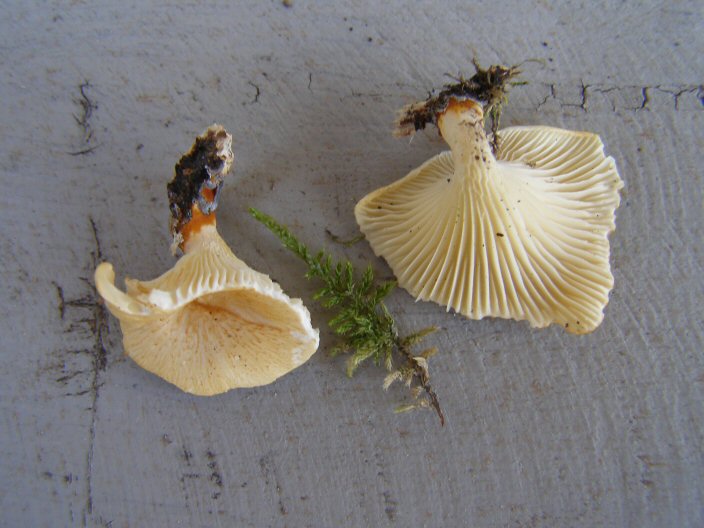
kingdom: Fungi
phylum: Basidiomycota
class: Agaricomycetes
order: Polyporales
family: Polyporaceae
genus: Neofavolus
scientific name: Neofavolus suavissimus
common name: anishat
